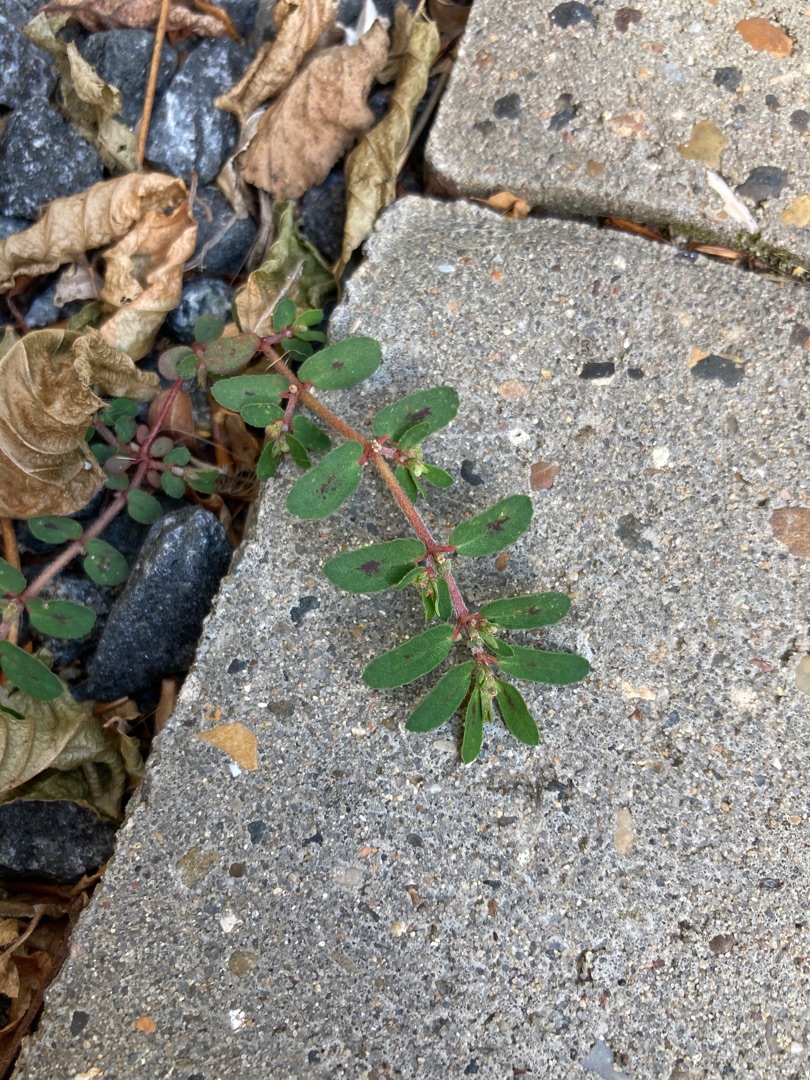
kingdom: Plantae
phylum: Tracheophyta
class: Magnoliopsida
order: Malpighiales
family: Euphorbiaceae
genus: Euphorbia
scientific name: Euphorbia maculata
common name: Plet-vortemælk
